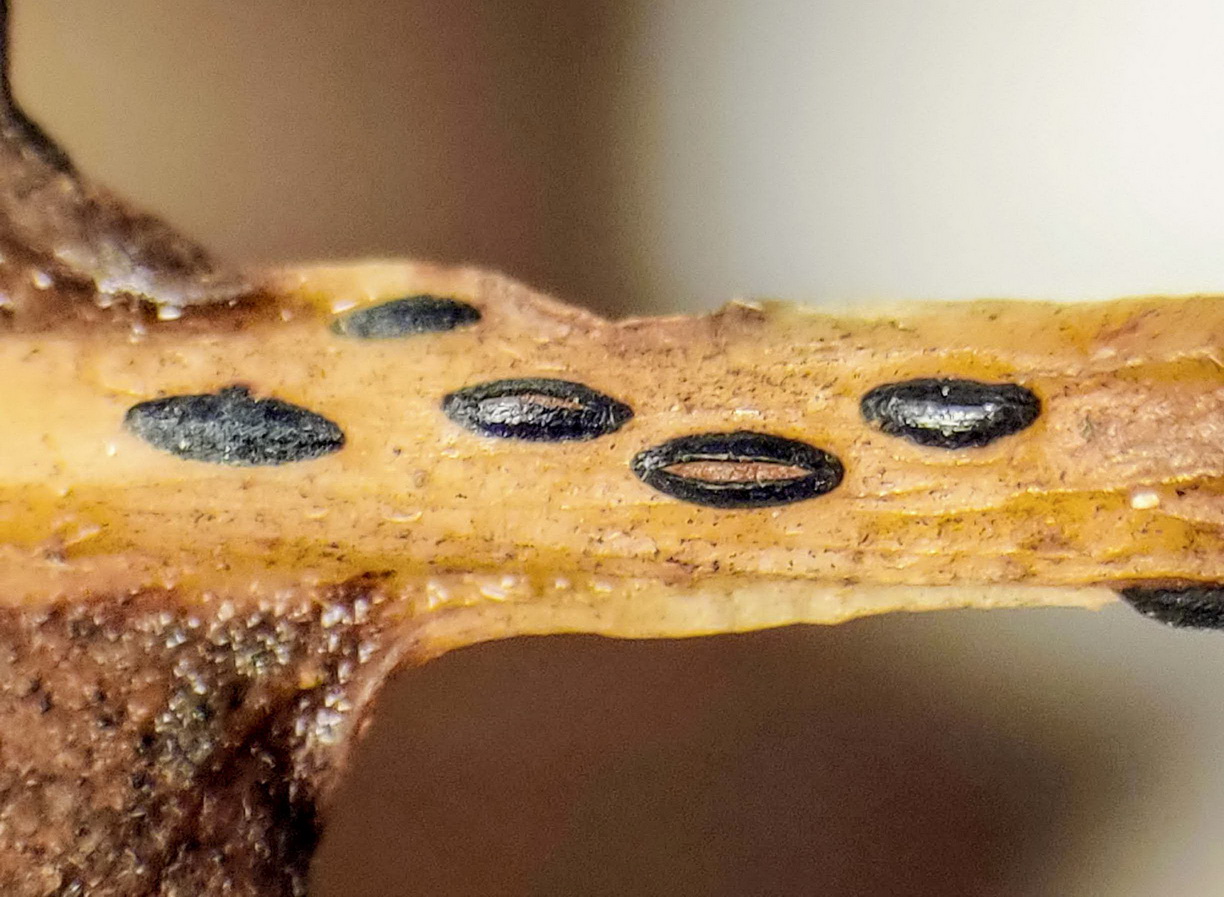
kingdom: Fungi
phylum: Ascomycota
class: Leotiomycetes
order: Rhytismatales
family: Rhytismataceae
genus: Lophodermium
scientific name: Lophodermium petiolicola
